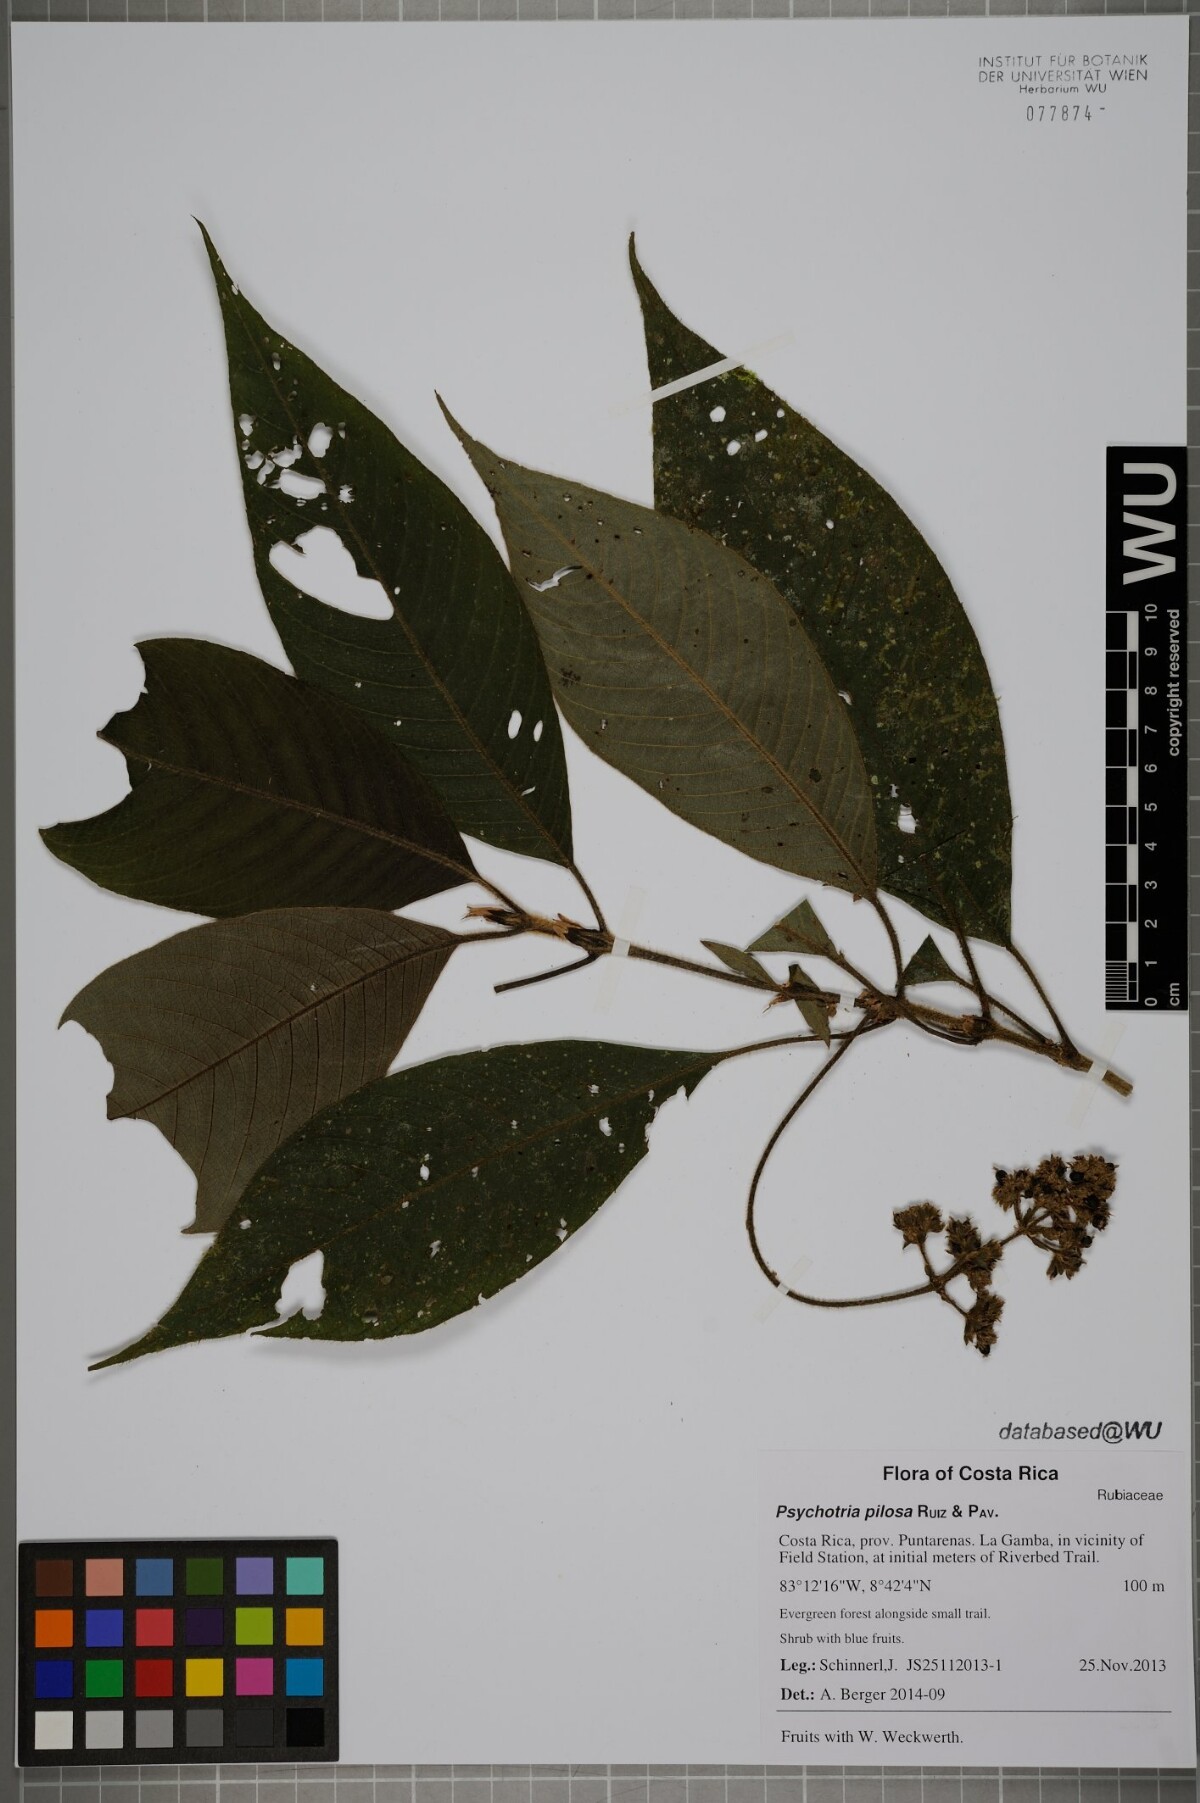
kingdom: Plantae
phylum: Tracheophyta
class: Magnoliopsida
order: Gentianales
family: Rubiaceae
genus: Palicourea
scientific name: Palicourea pilosa
